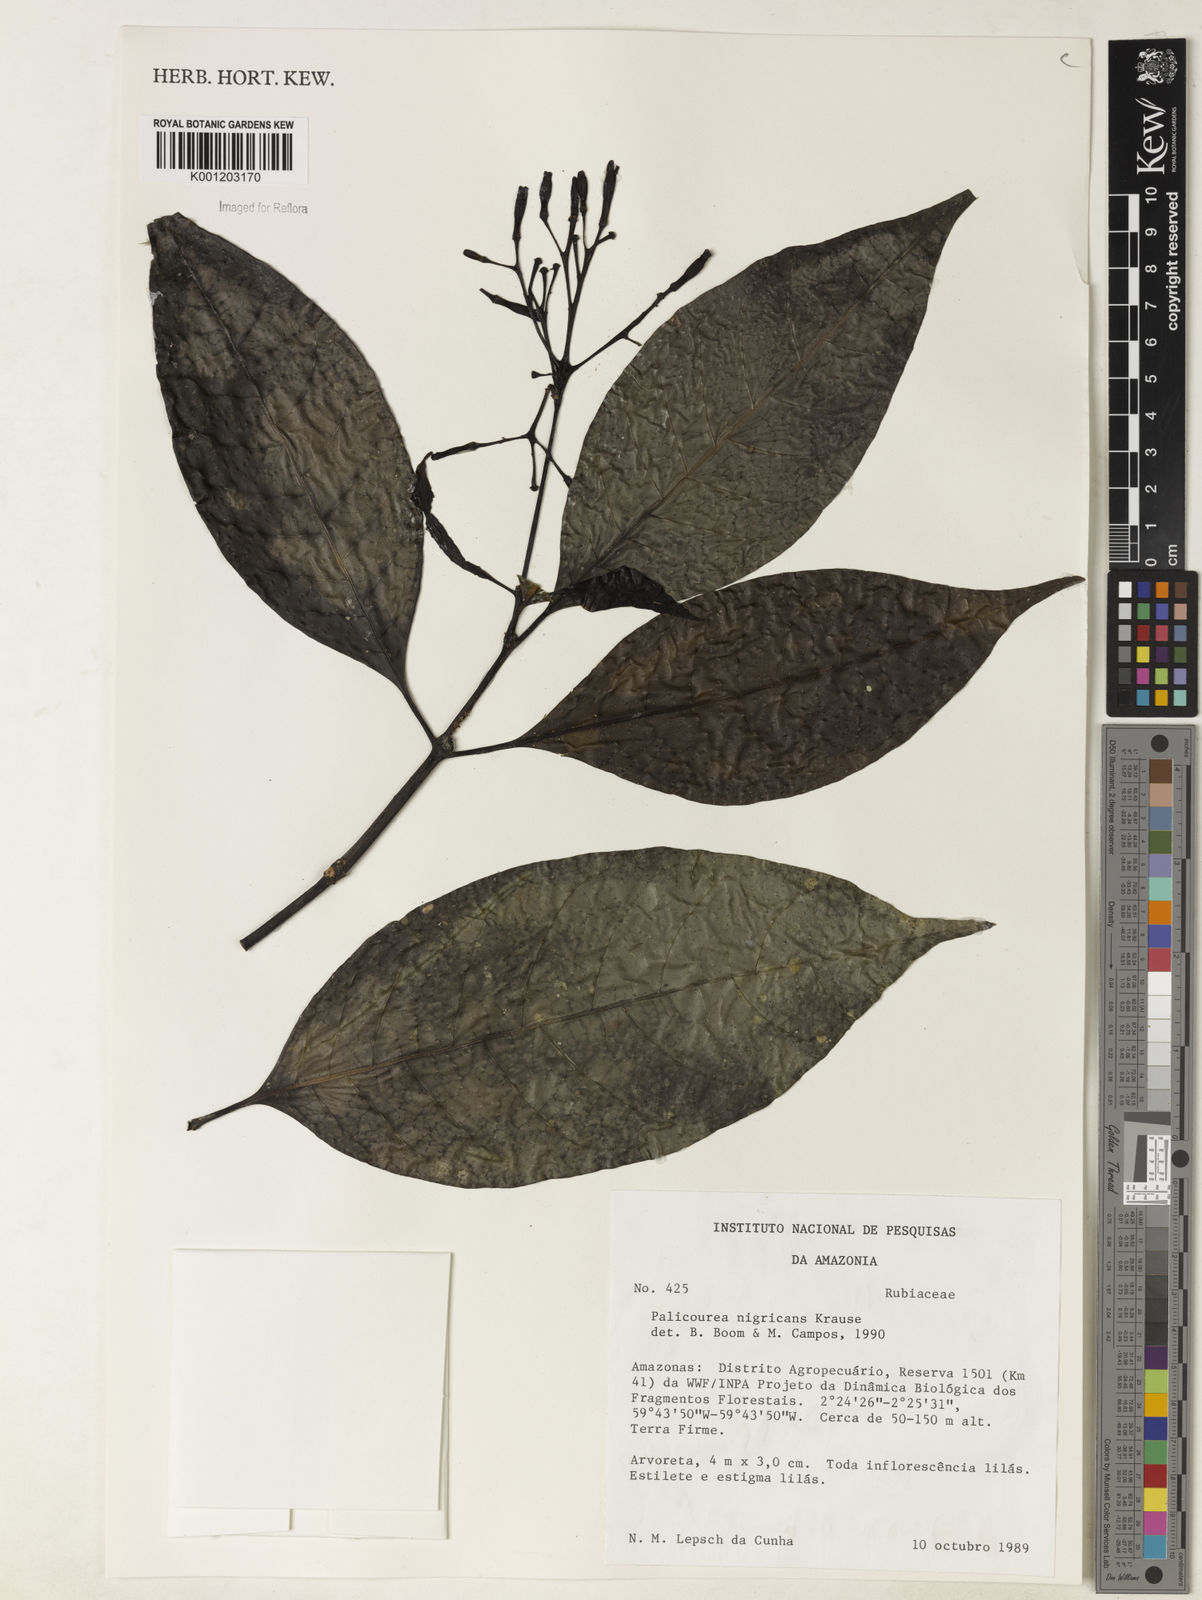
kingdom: Plantae
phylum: Tracheophyta
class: Magnoliopsida
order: Gentianales
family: Rubiaceae
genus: Palicourea
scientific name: Palicourea nigricans
